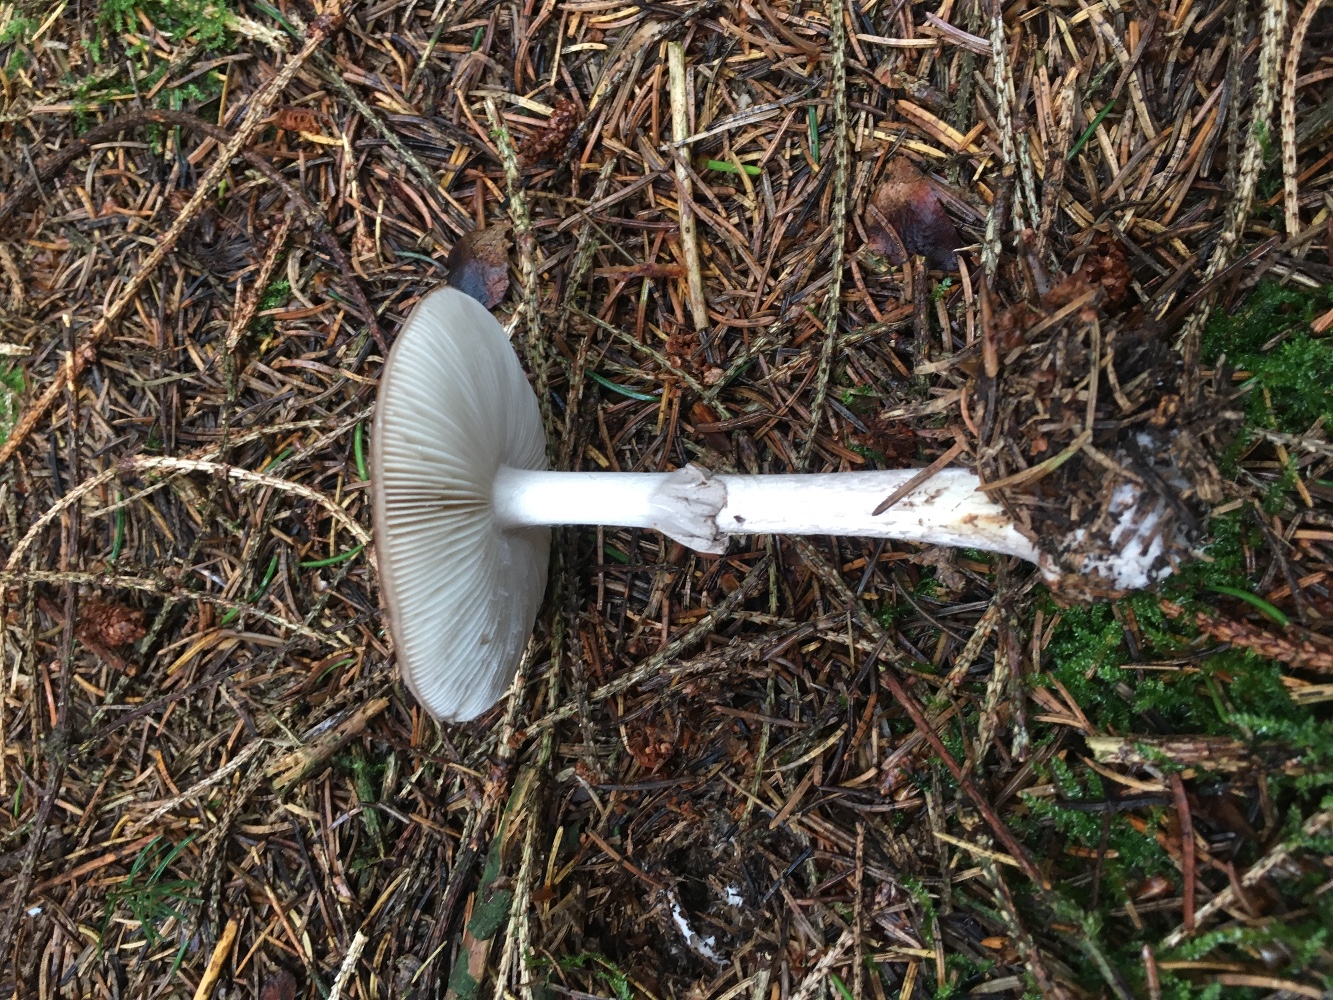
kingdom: Fungi
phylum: Basidiomycota
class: Agaricomycetes
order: Agaricales
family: Amanitaceae
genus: Amanita
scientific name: Amanita porphyria
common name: porfyr-fluesvamp
